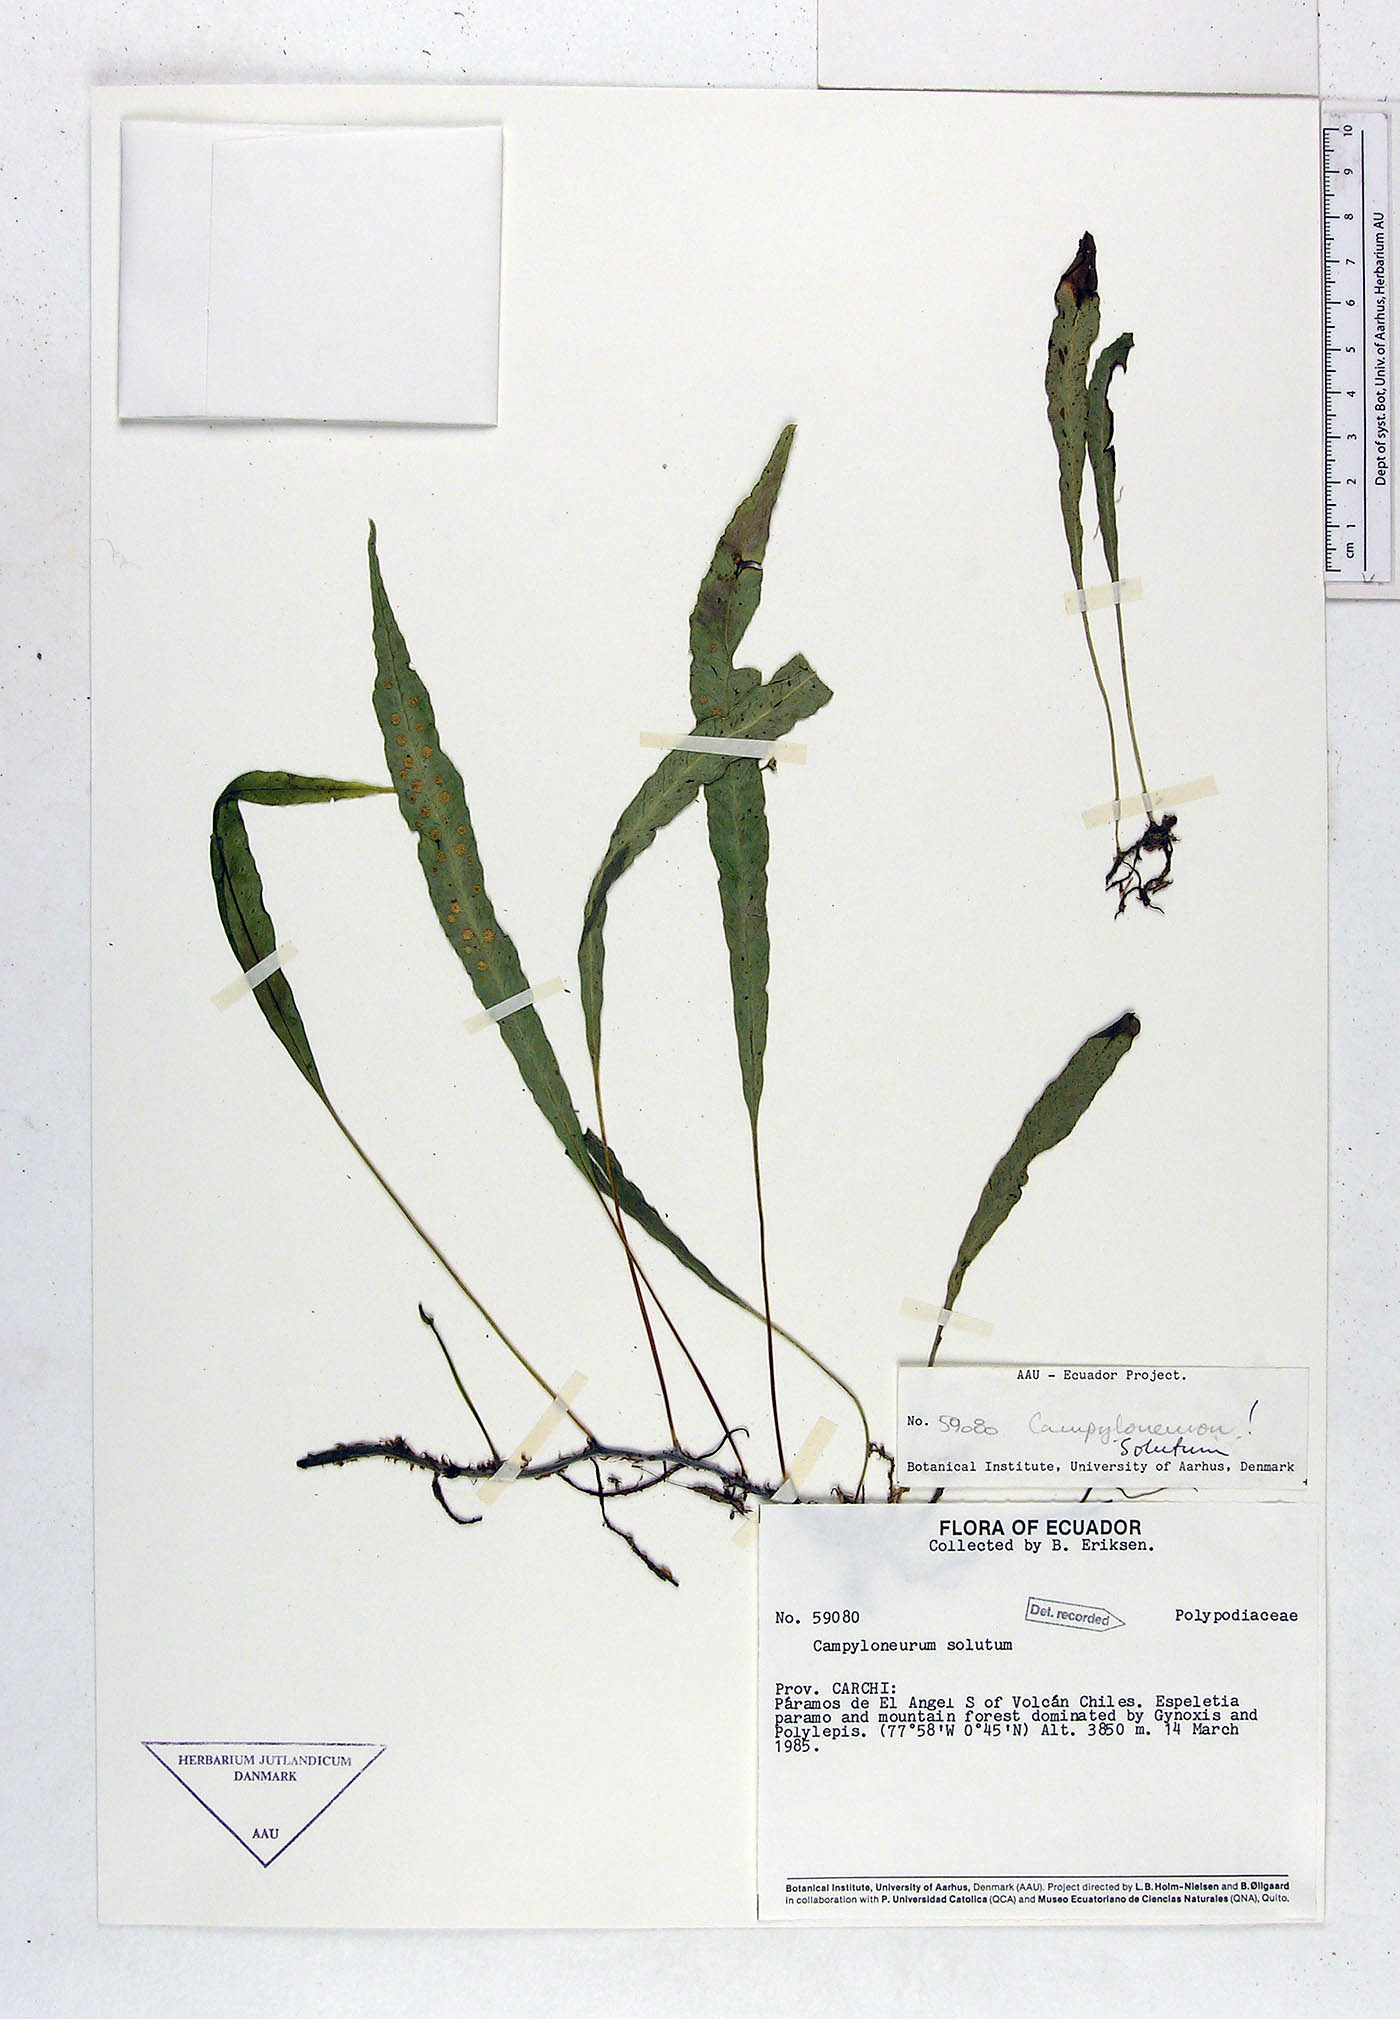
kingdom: Plantae
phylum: Tracheophyta
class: Polypodiopsida
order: Polypodiales
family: Polypodiaceae
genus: Campyloneurum
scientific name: Campyloneurum solutum
